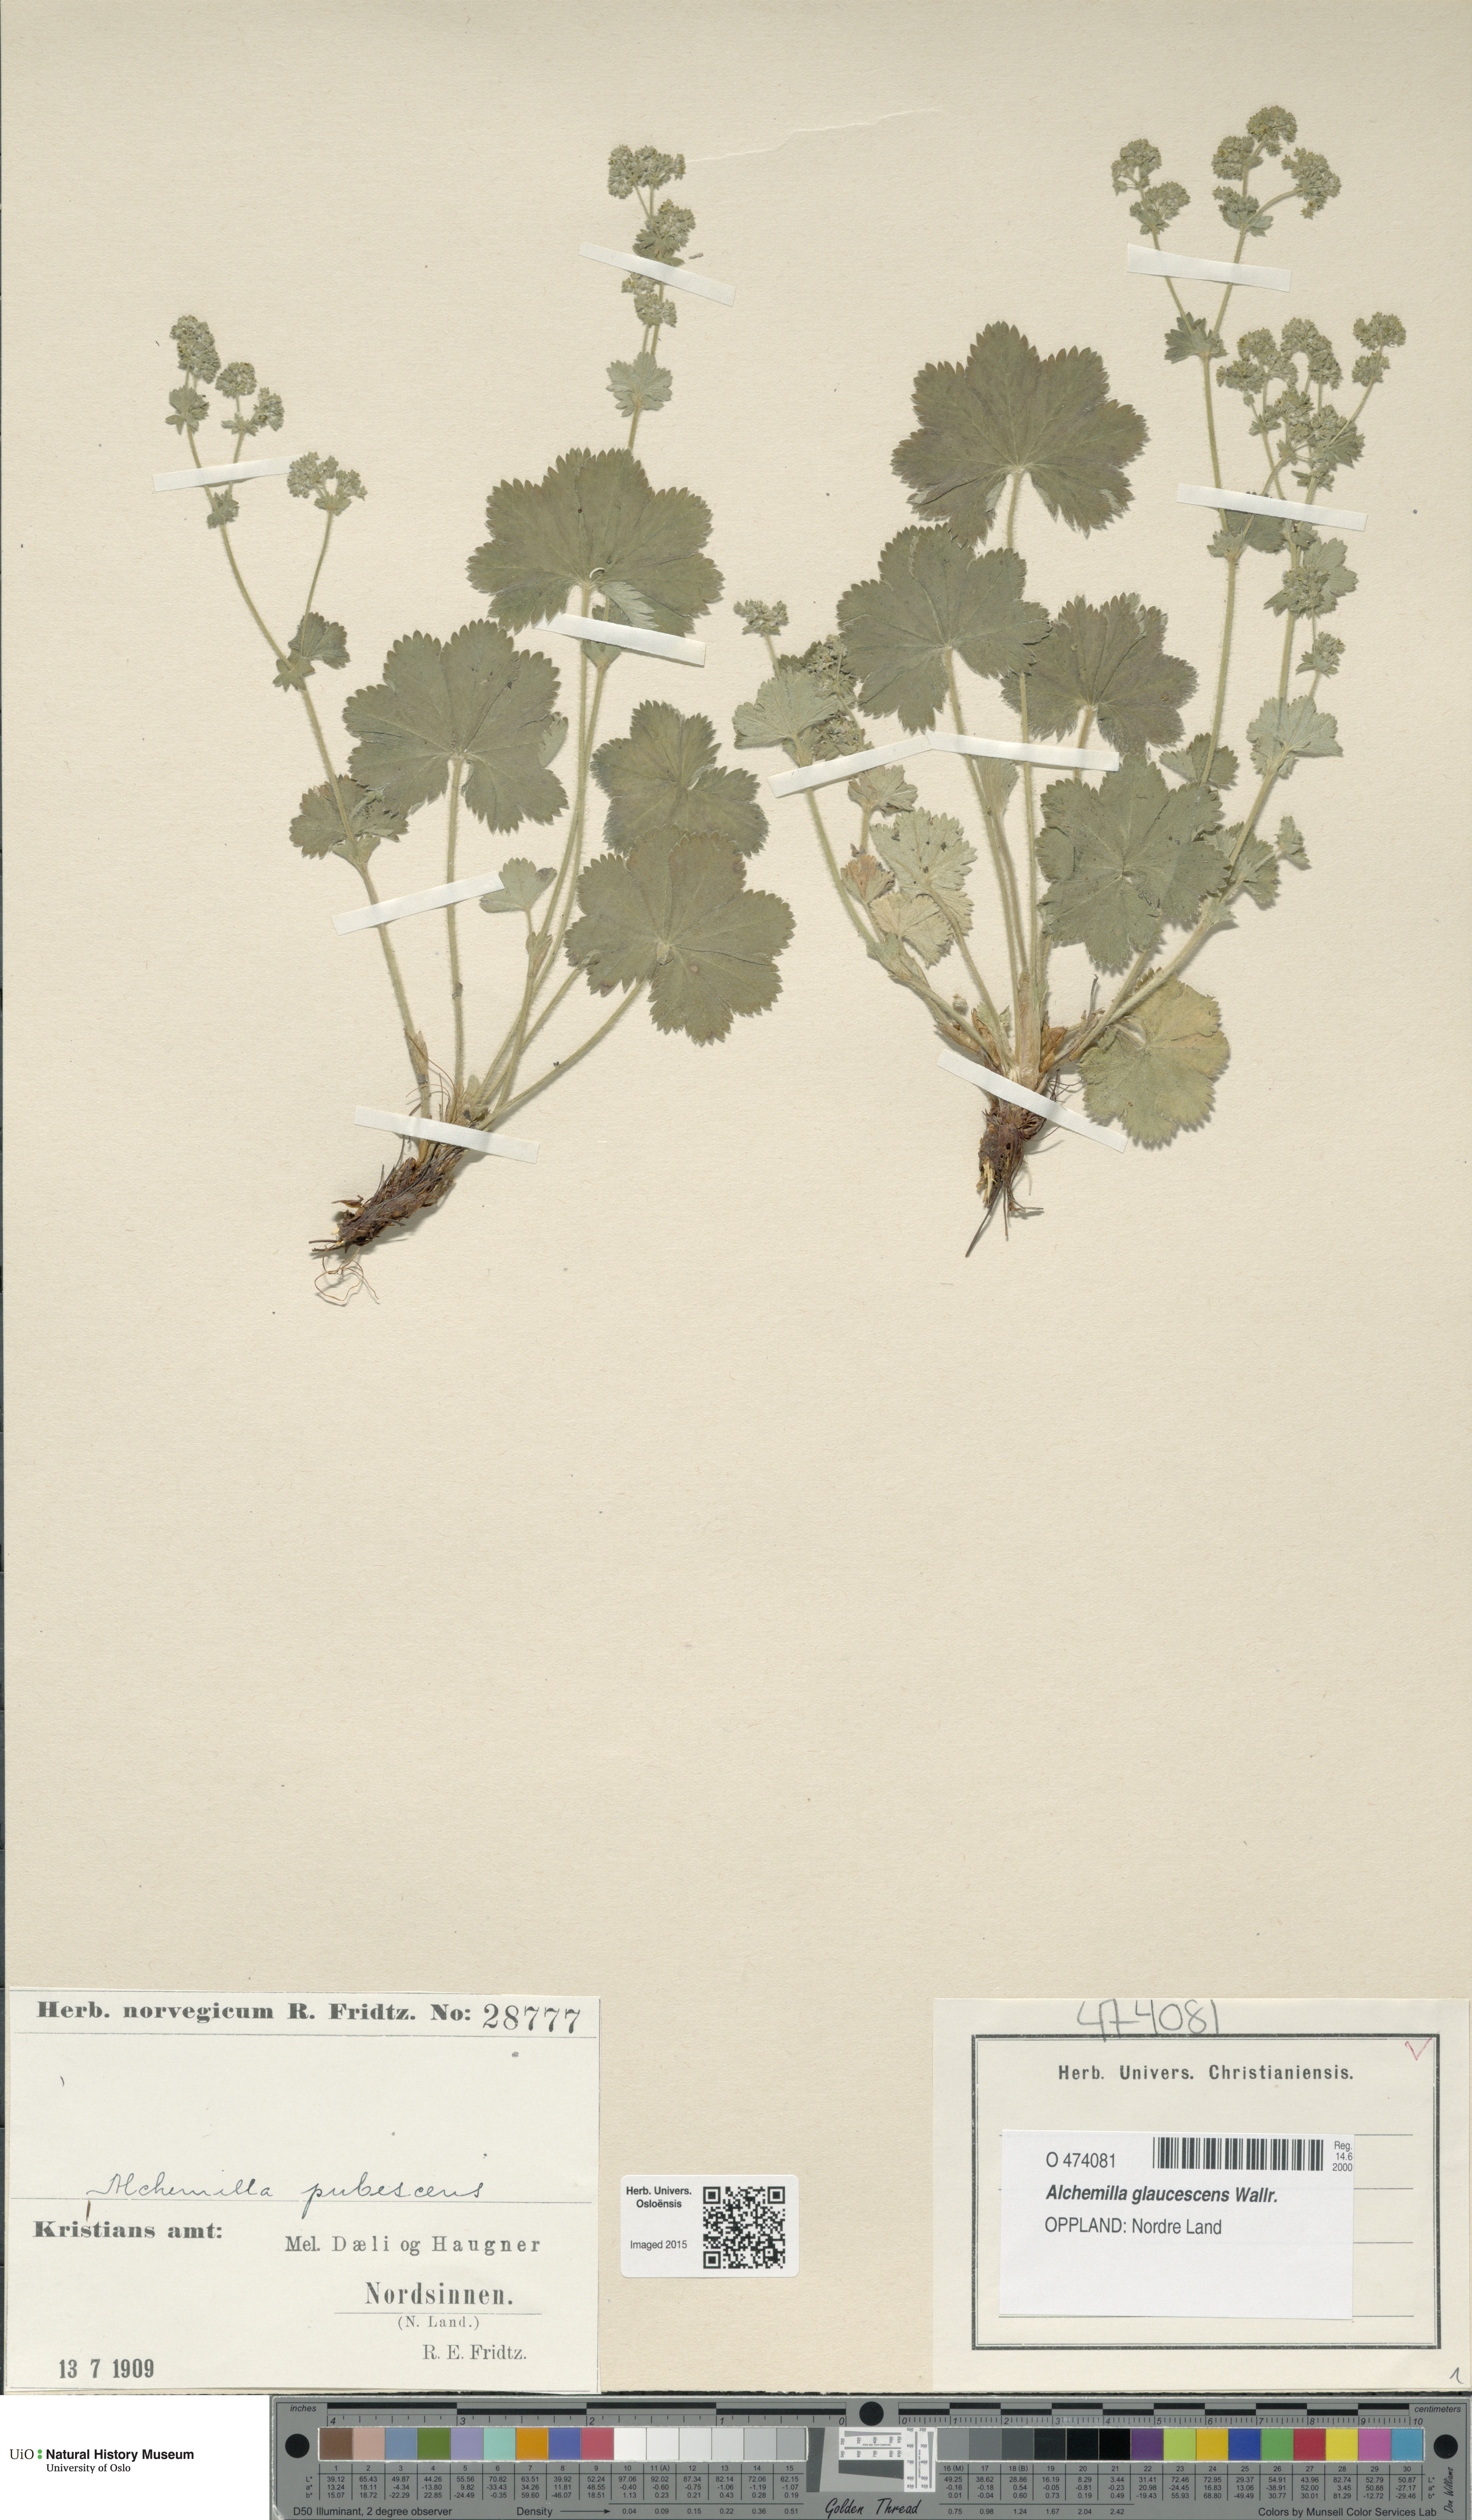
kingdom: Plantae
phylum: Tracheophyta
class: Magnoliopsida
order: Rosales
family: Rosaceae
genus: Alchemilla
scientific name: Alchemilla glaucescens
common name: Silky lady's mantle
